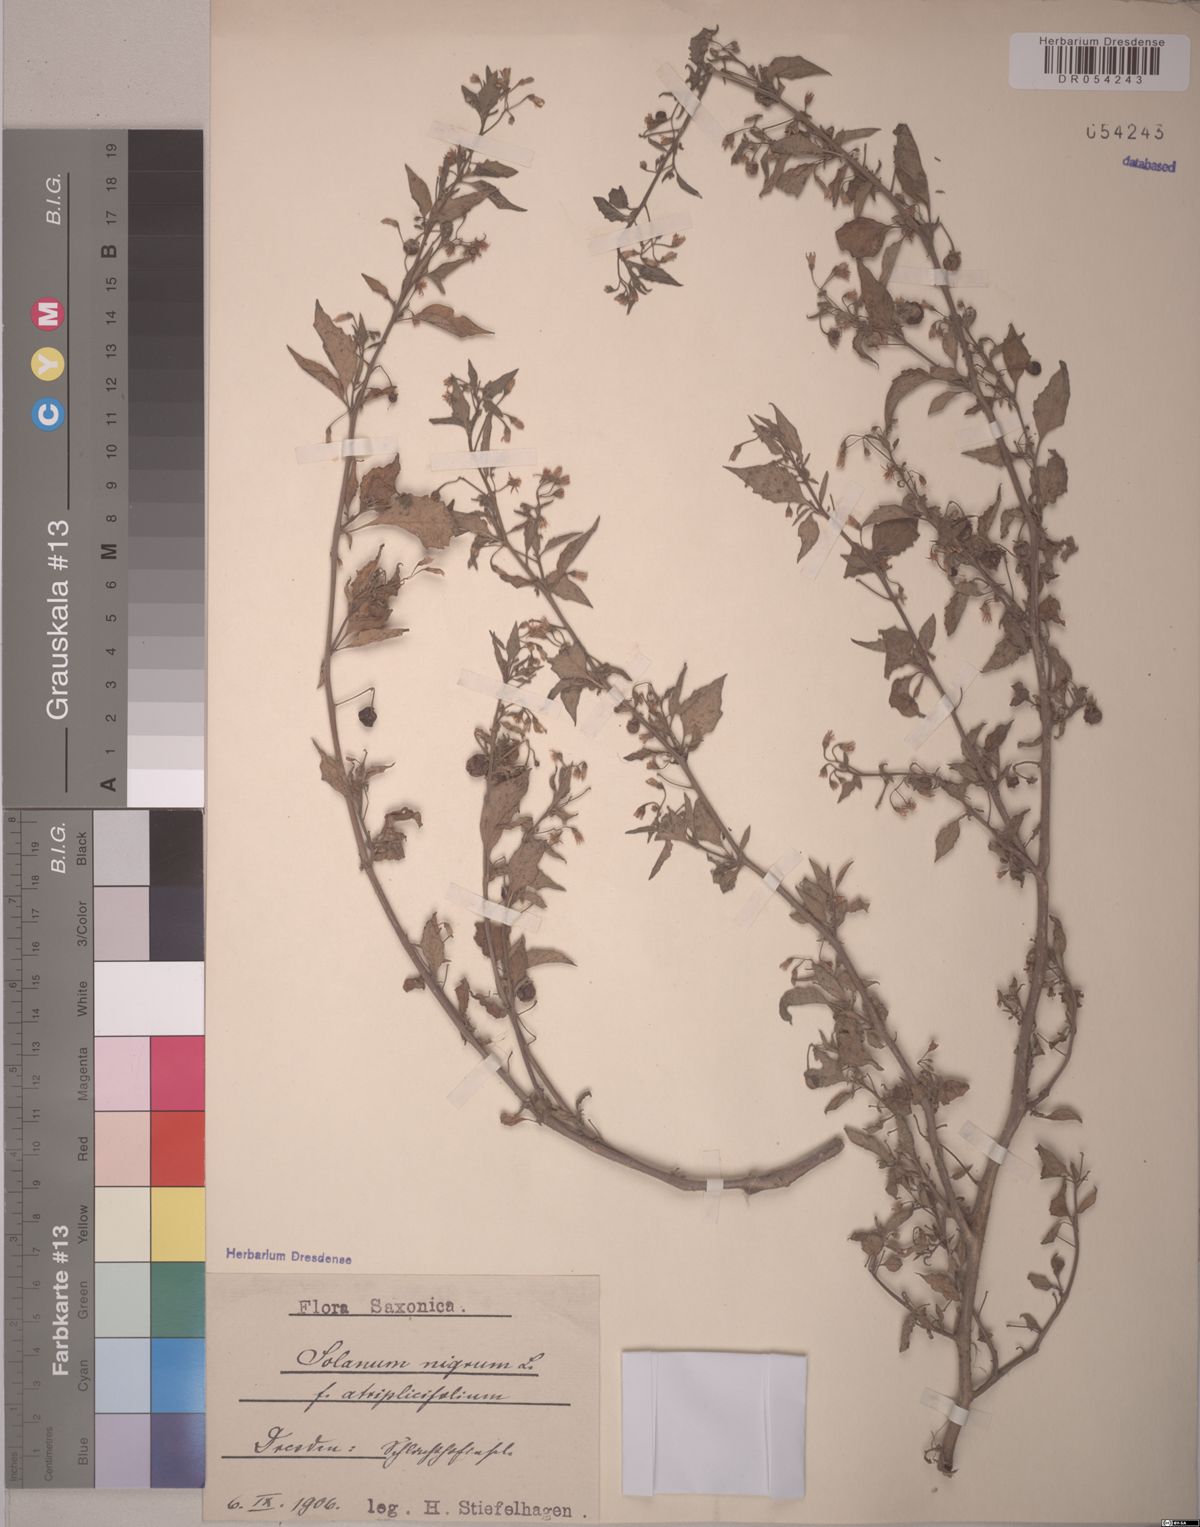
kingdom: Plantae
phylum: Tracheophyta
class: Magnoliopsida
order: Solanales
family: Solanaceae
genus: Solanum
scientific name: Solanum nigrum
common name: Black nightshade
